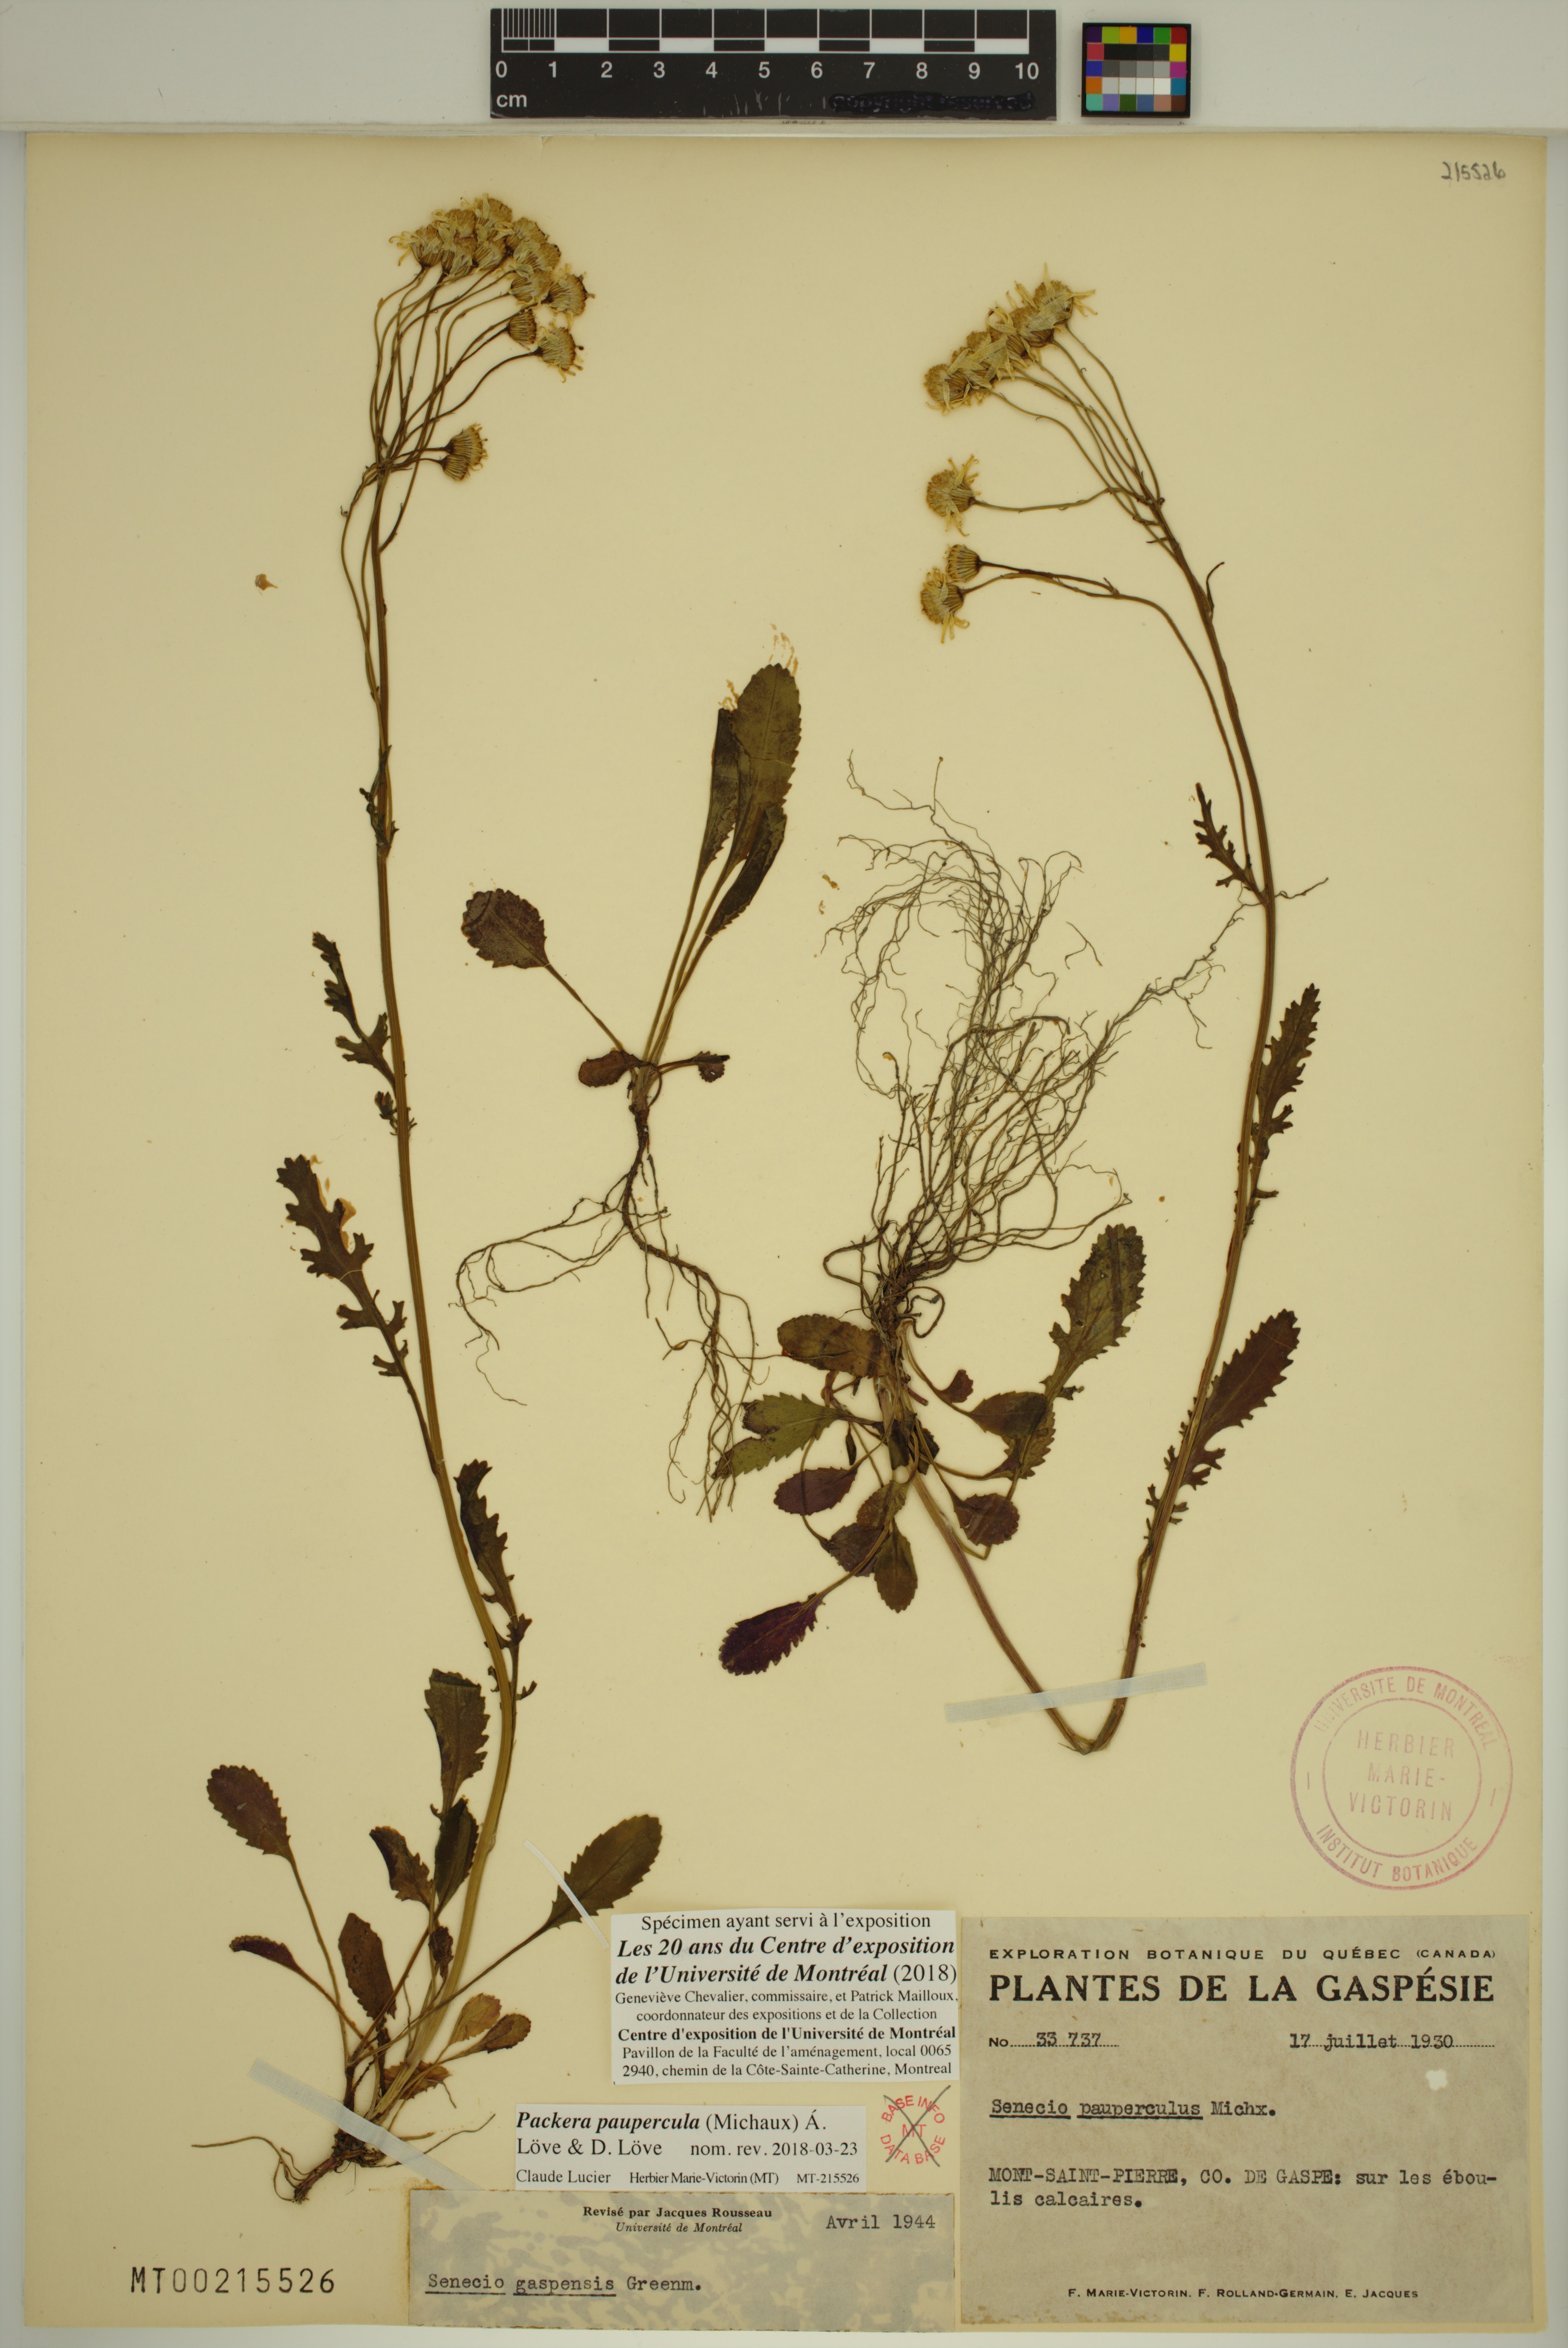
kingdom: Plantae
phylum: Tracheophyta
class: Magnoliopsida
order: Asterales
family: Asteraceae
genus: Packera
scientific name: Packera paupercula
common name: Balsam groundsel
